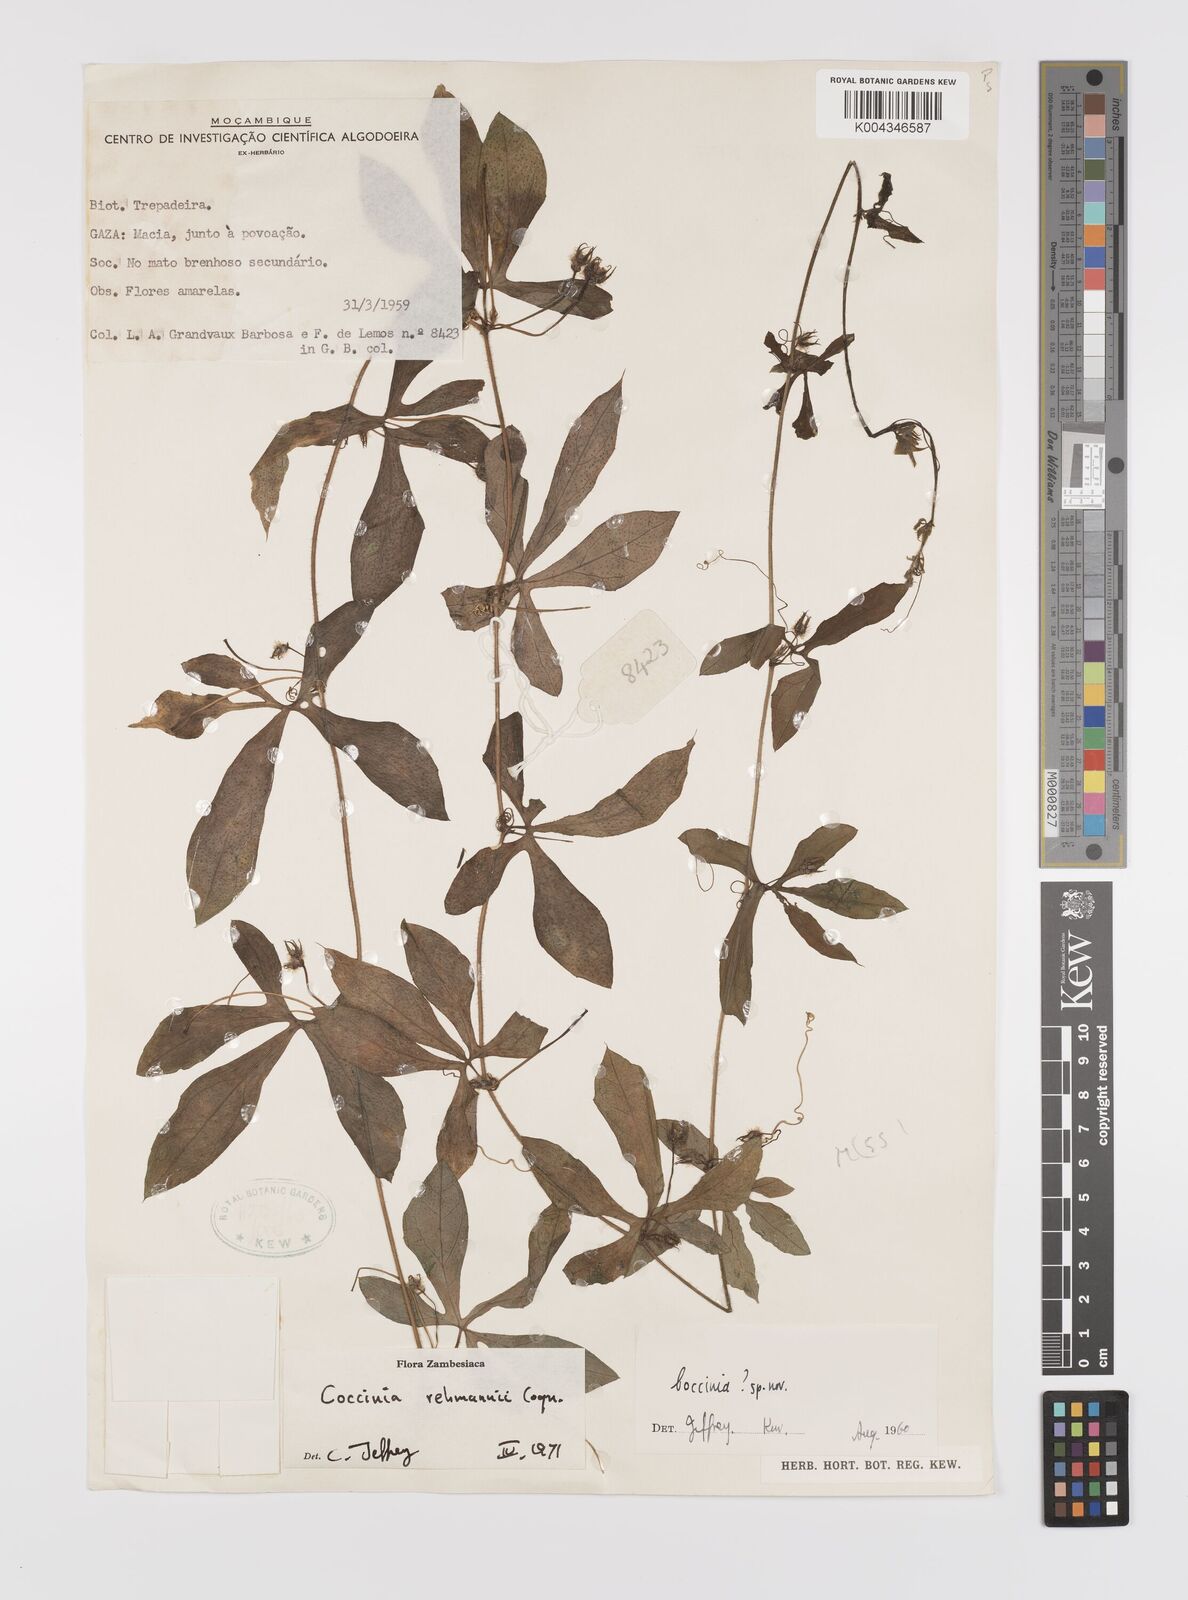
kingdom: Plantae
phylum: Tracheophyta
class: Magnoliopsida
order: Cucurbitales
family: Cucurbitaceae
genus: Coccinia
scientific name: Coccinia rehmannii
